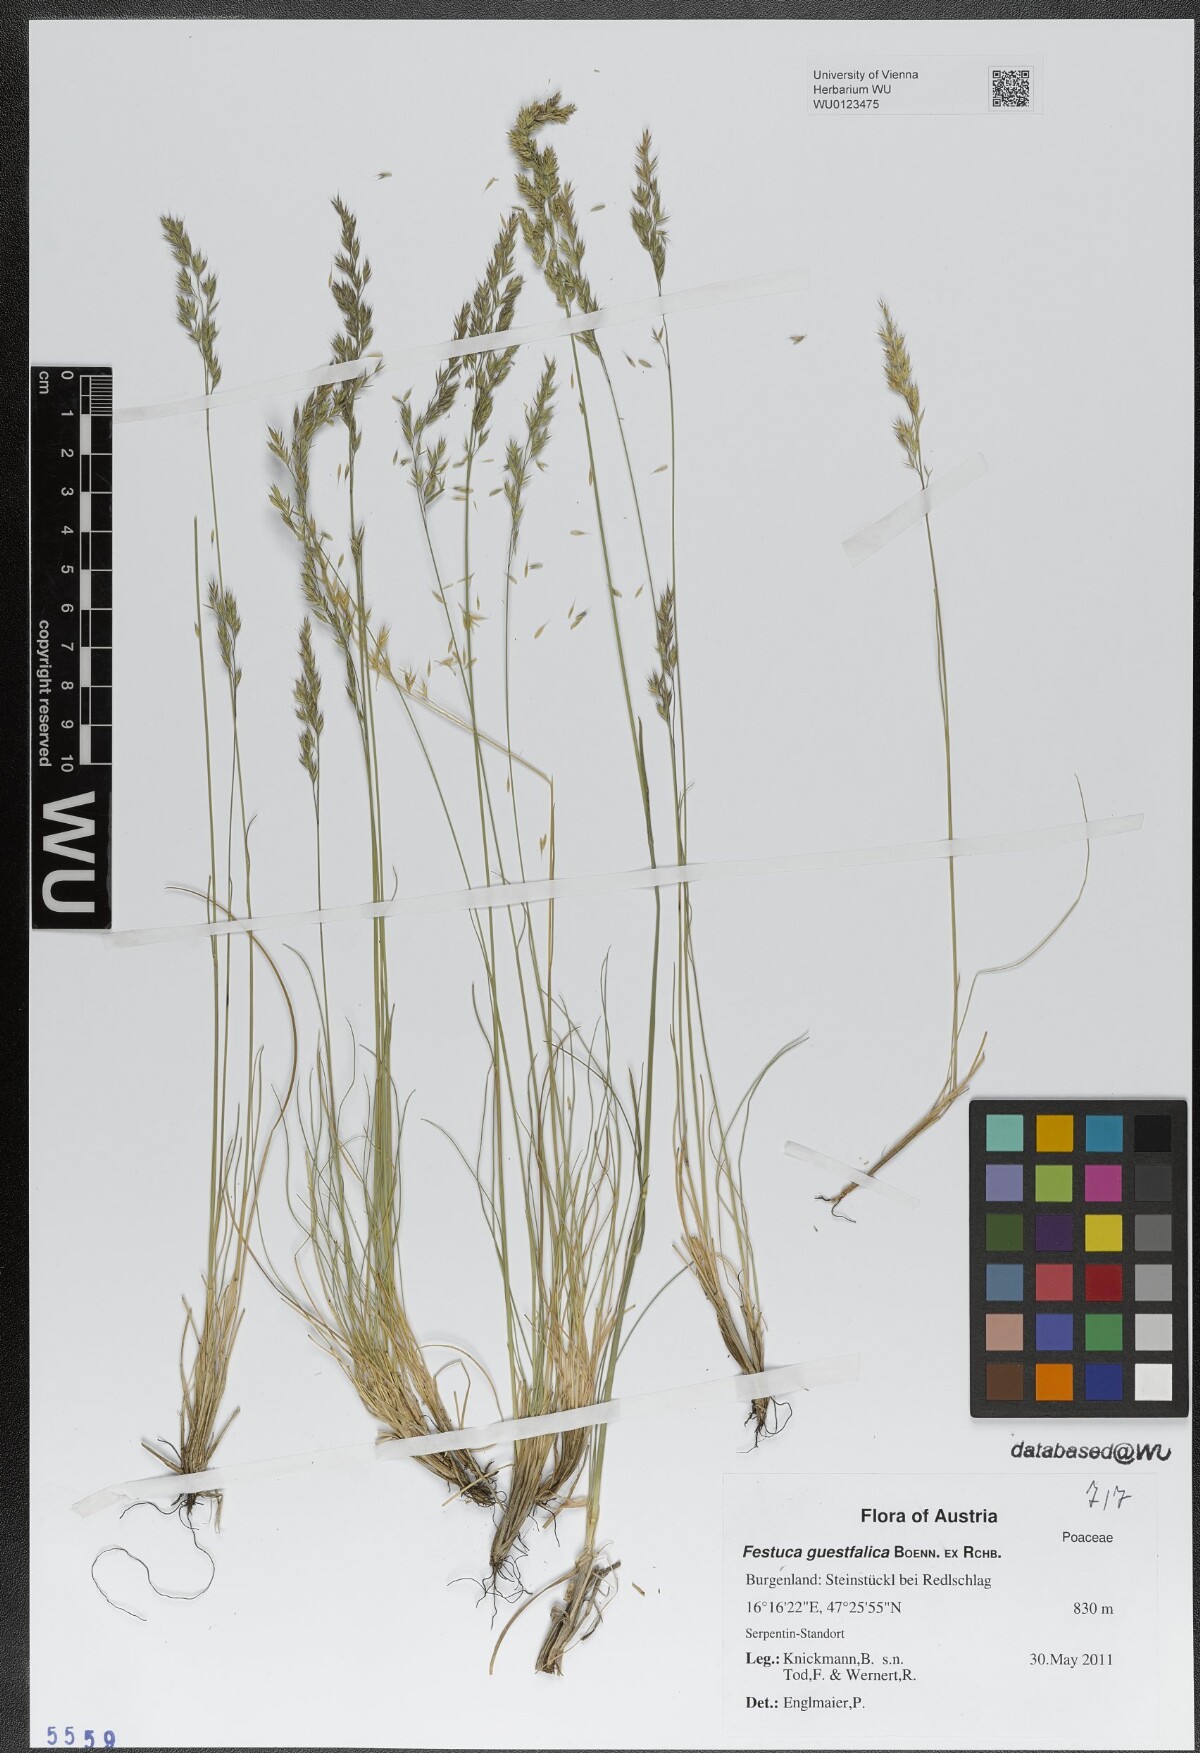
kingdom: Plantae
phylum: Tracheophyta
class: Liliopsida
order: Poales
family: Poaceae
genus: Festuca
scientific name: Festuca guestfalica
